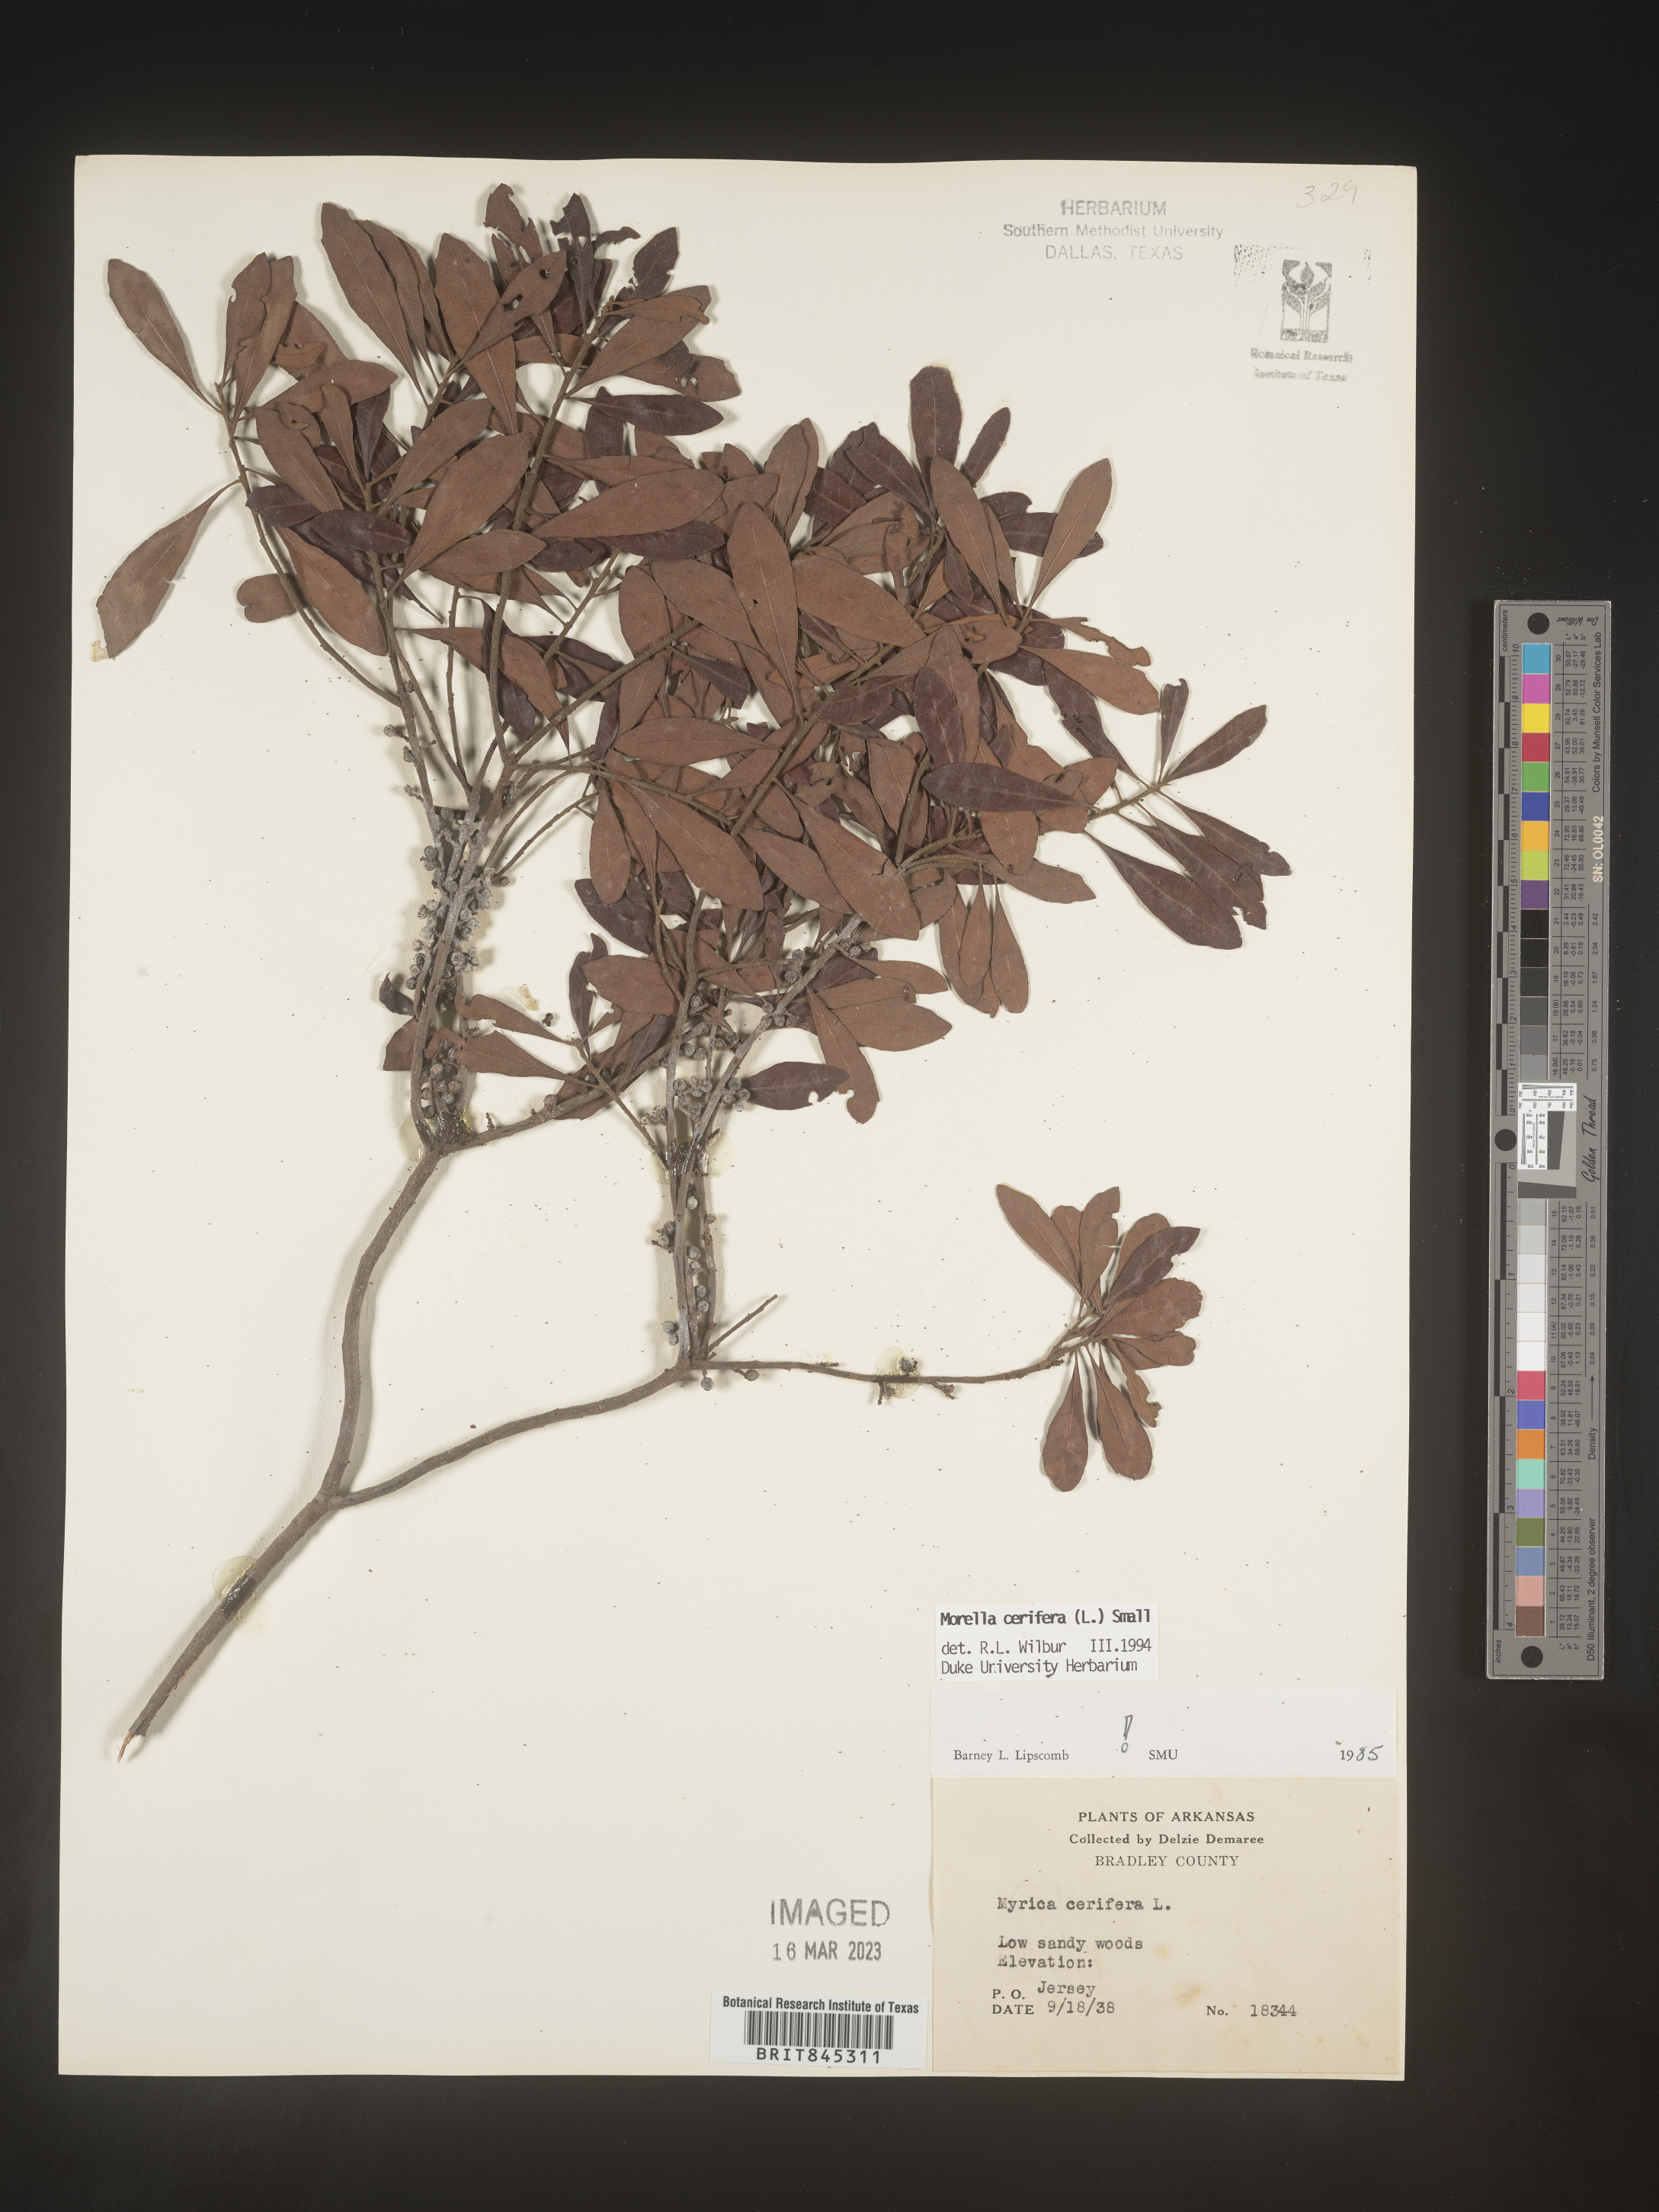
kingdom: Plantae
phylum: Tracheophyta
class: Magnoliopsida
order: Fagales
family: Myricaceae
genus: Morella
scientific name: Morella cerifera
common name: Wax myrtle
